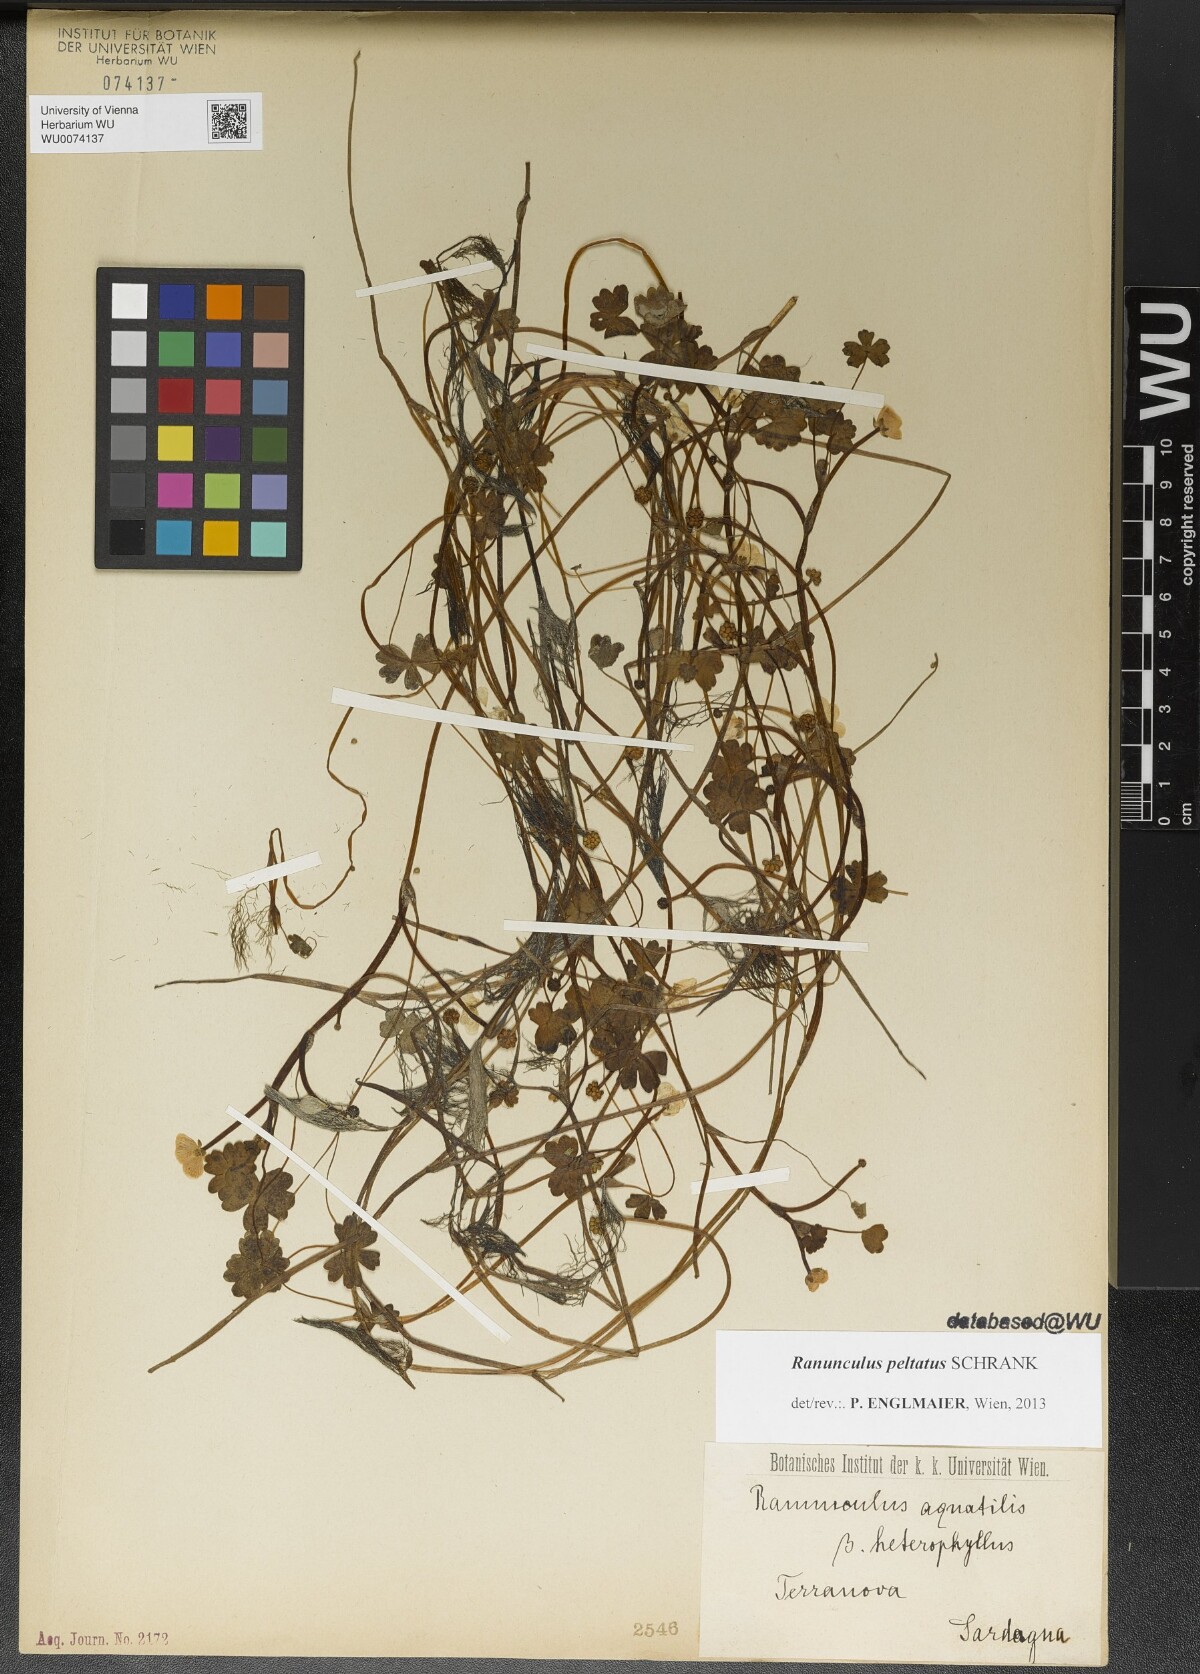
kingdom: Plantae
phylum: Tracheophyta
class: Magnoliopsida
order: Ranunculales
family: Ranunculaceae
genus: Ranunculus
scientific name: Ranunculus peltatus
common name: Pond water-crowfoot
